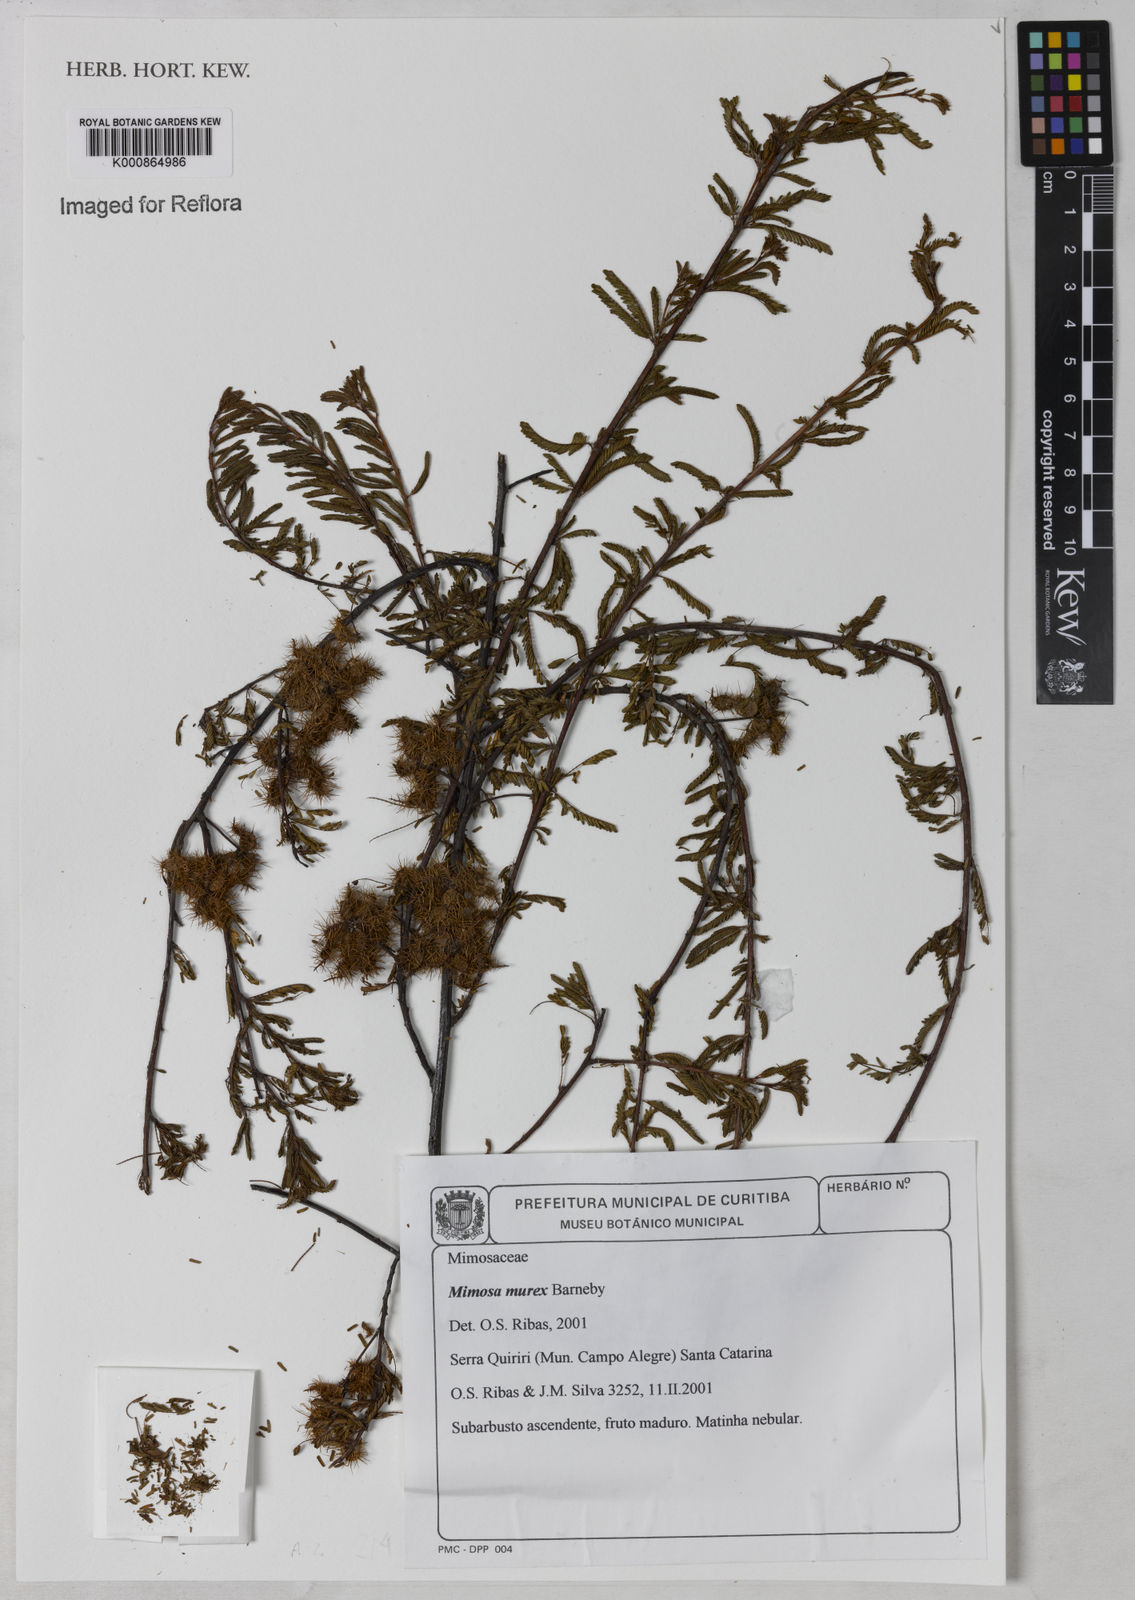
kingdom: Plantae
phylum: Tracheophyta
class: Magnoliopsida
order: Fabales
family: Fabaceae
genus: Mimosa
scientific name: Mimosa murex
